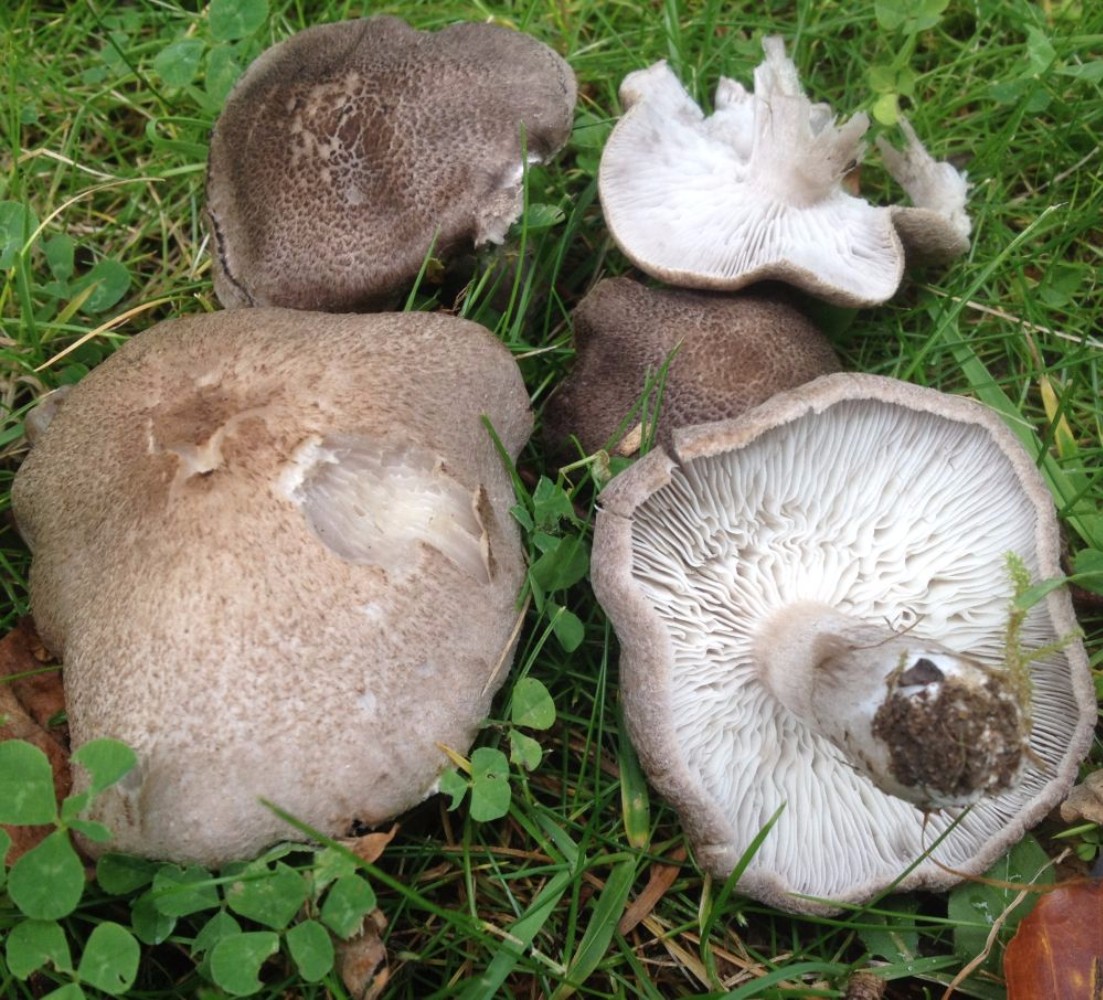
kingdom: Fungi
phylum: Basidiomycota
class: Agaricomycetes
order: Agaricales
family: Tricholomataceae
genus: Tricholoma
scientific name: Tricholoma scalpturatum
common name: gulplettet ridderhat
